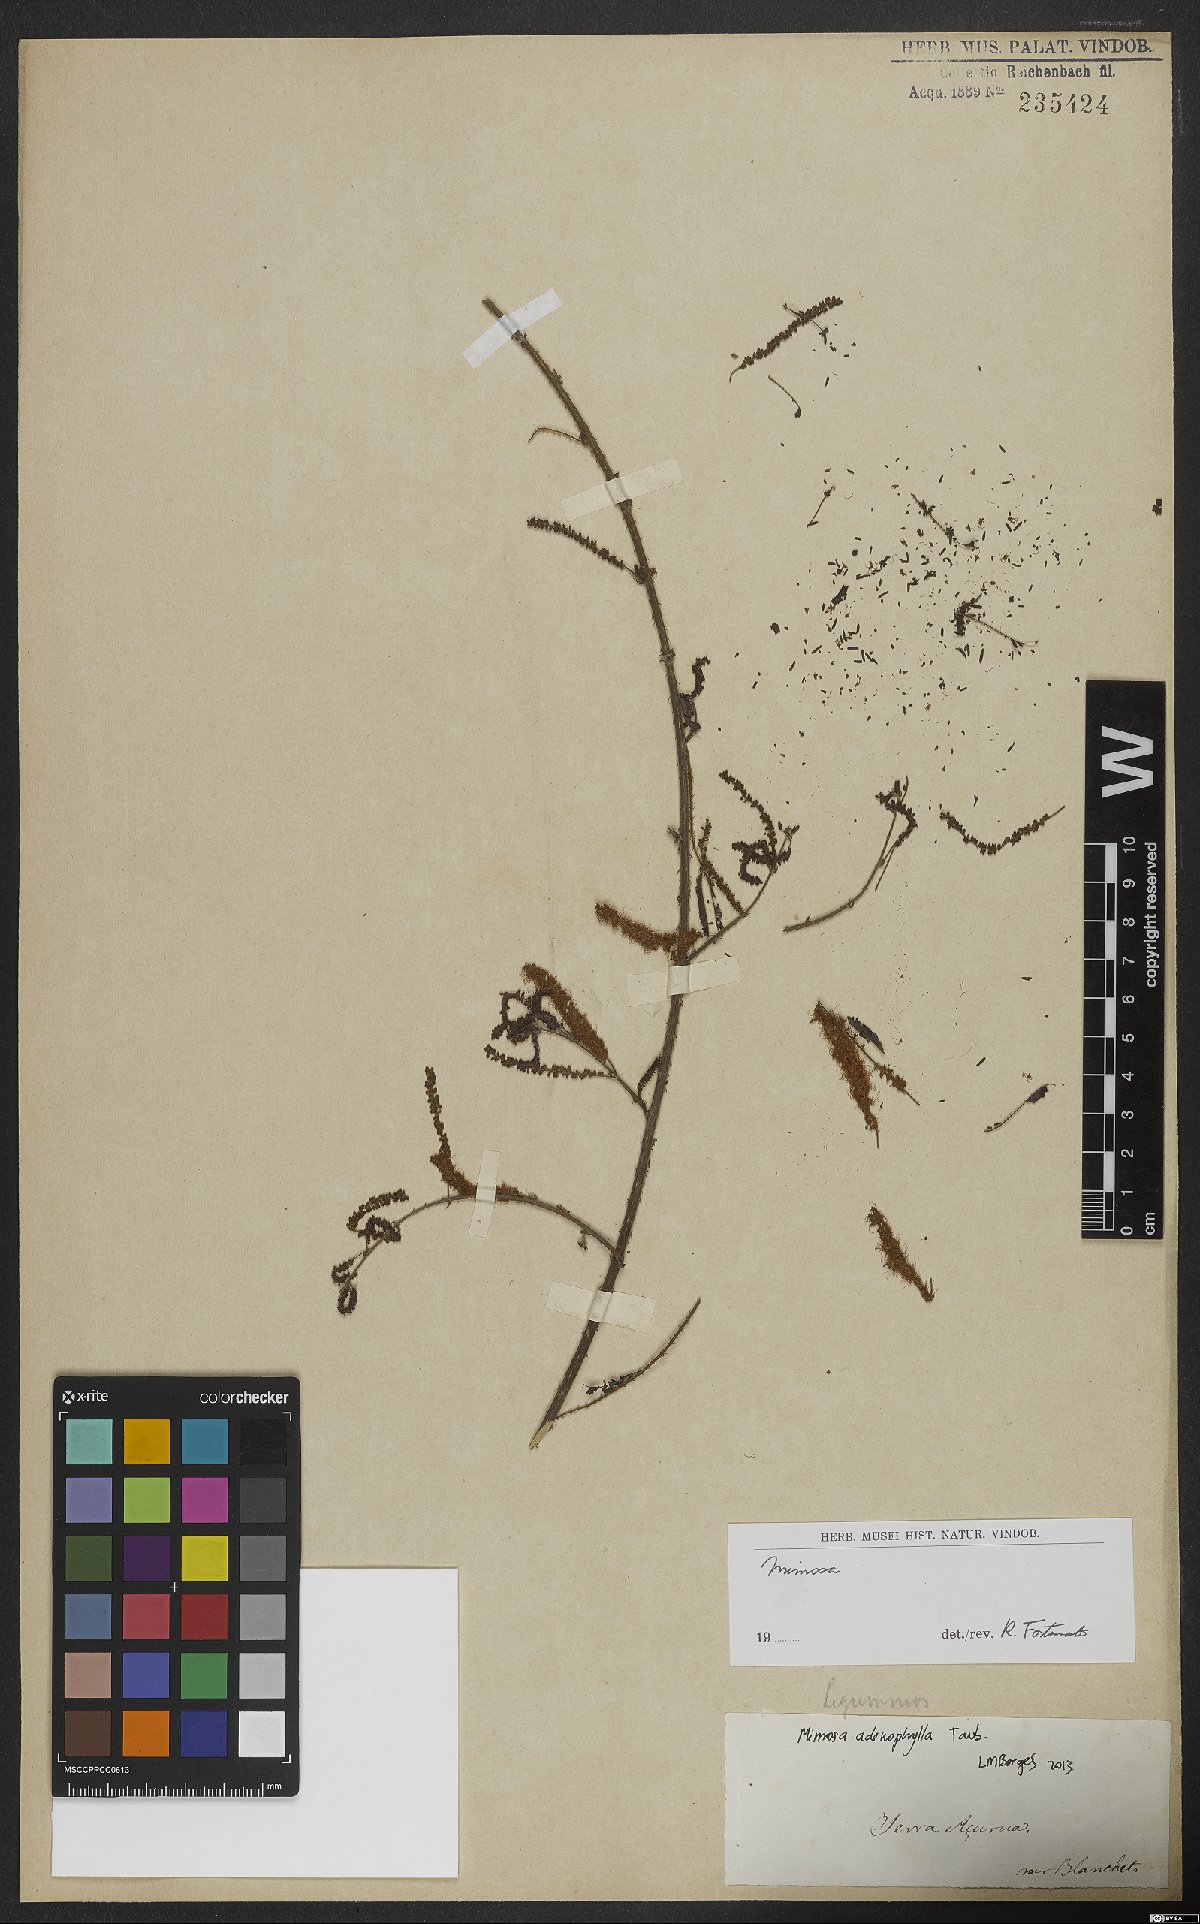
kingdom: Plantae
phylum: Tracheophyta
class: Magnoliopsida
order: Fabales
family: Fabaceae
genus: Mimosa
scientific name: Mimosa pteridifolia
